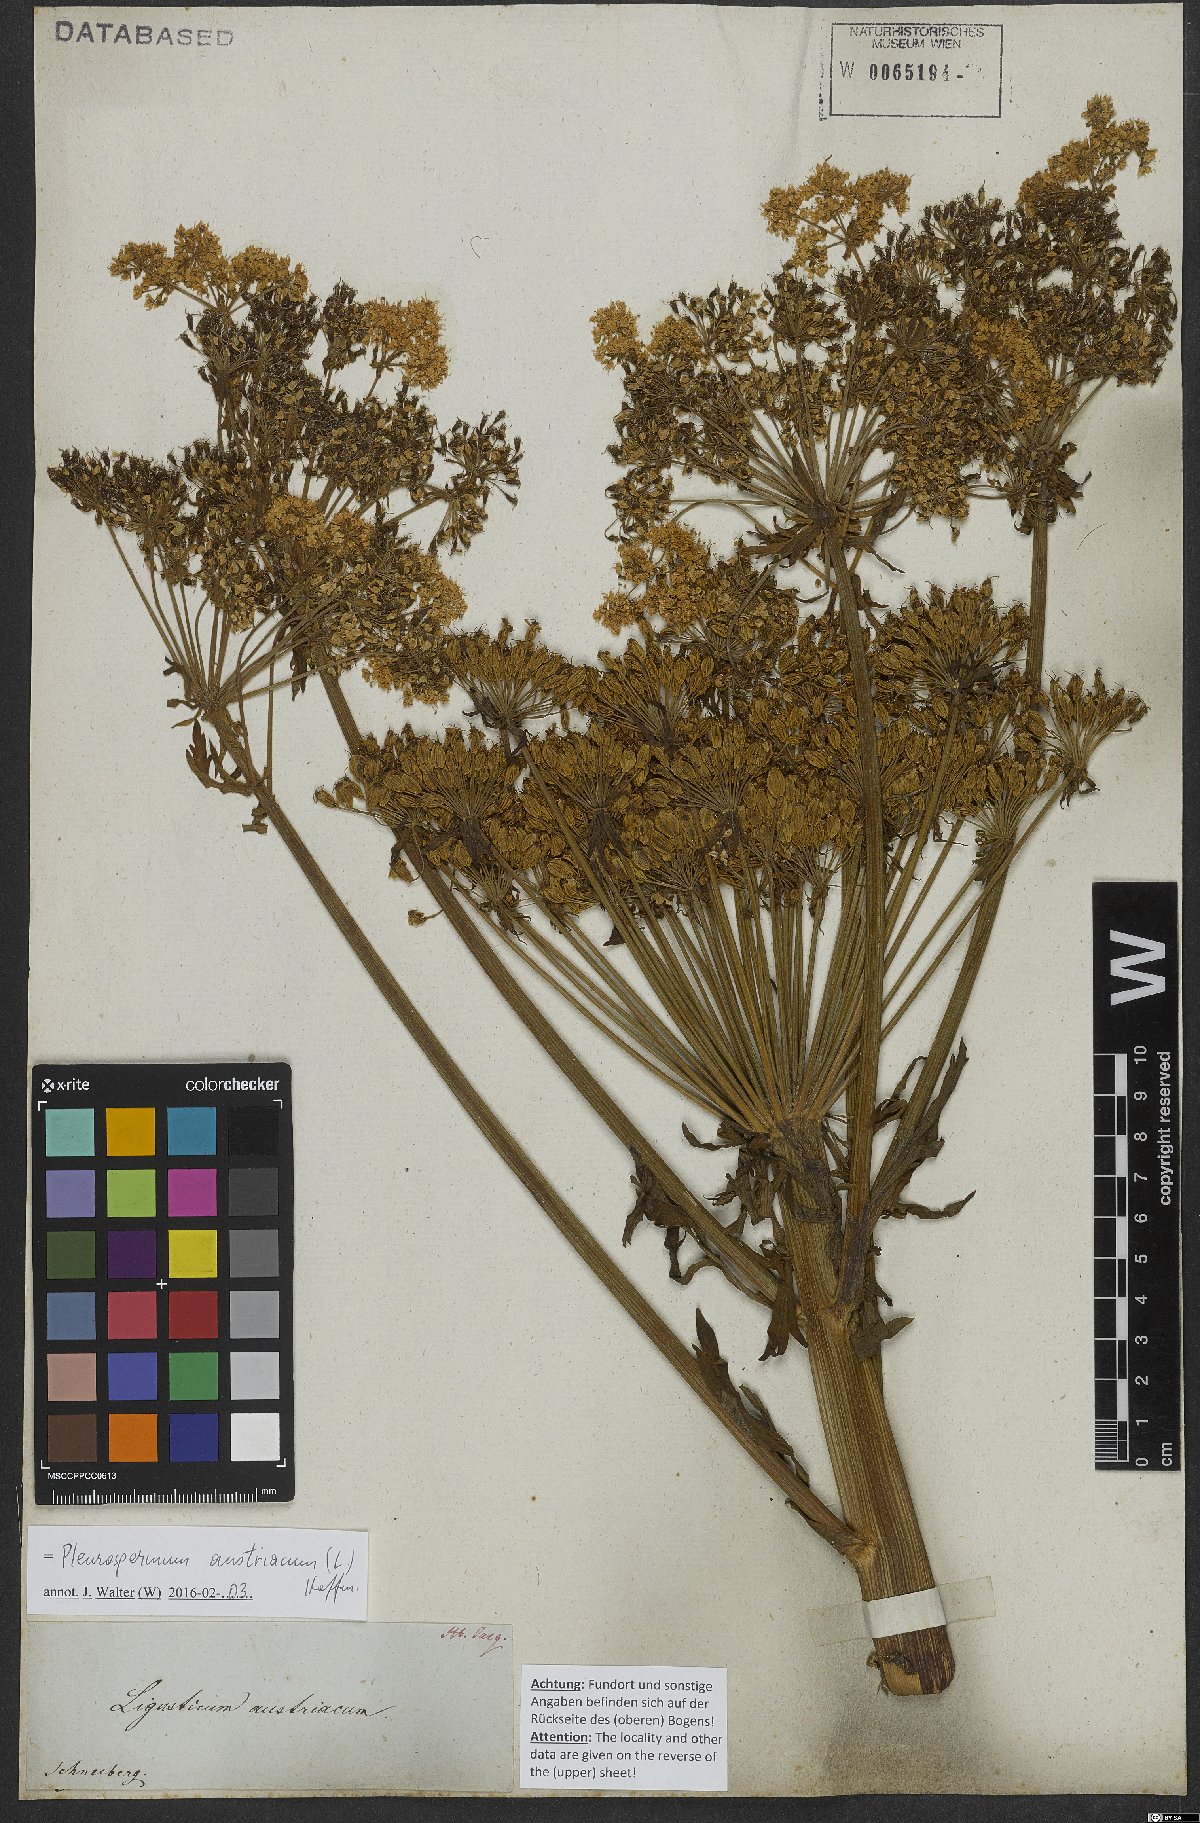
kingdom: Plantae
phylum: Tracheophyta
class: Magnoliopsida
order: Apiales
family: Apiaceae
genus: Pleurospermum
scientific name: Pleurospermum austriacum
